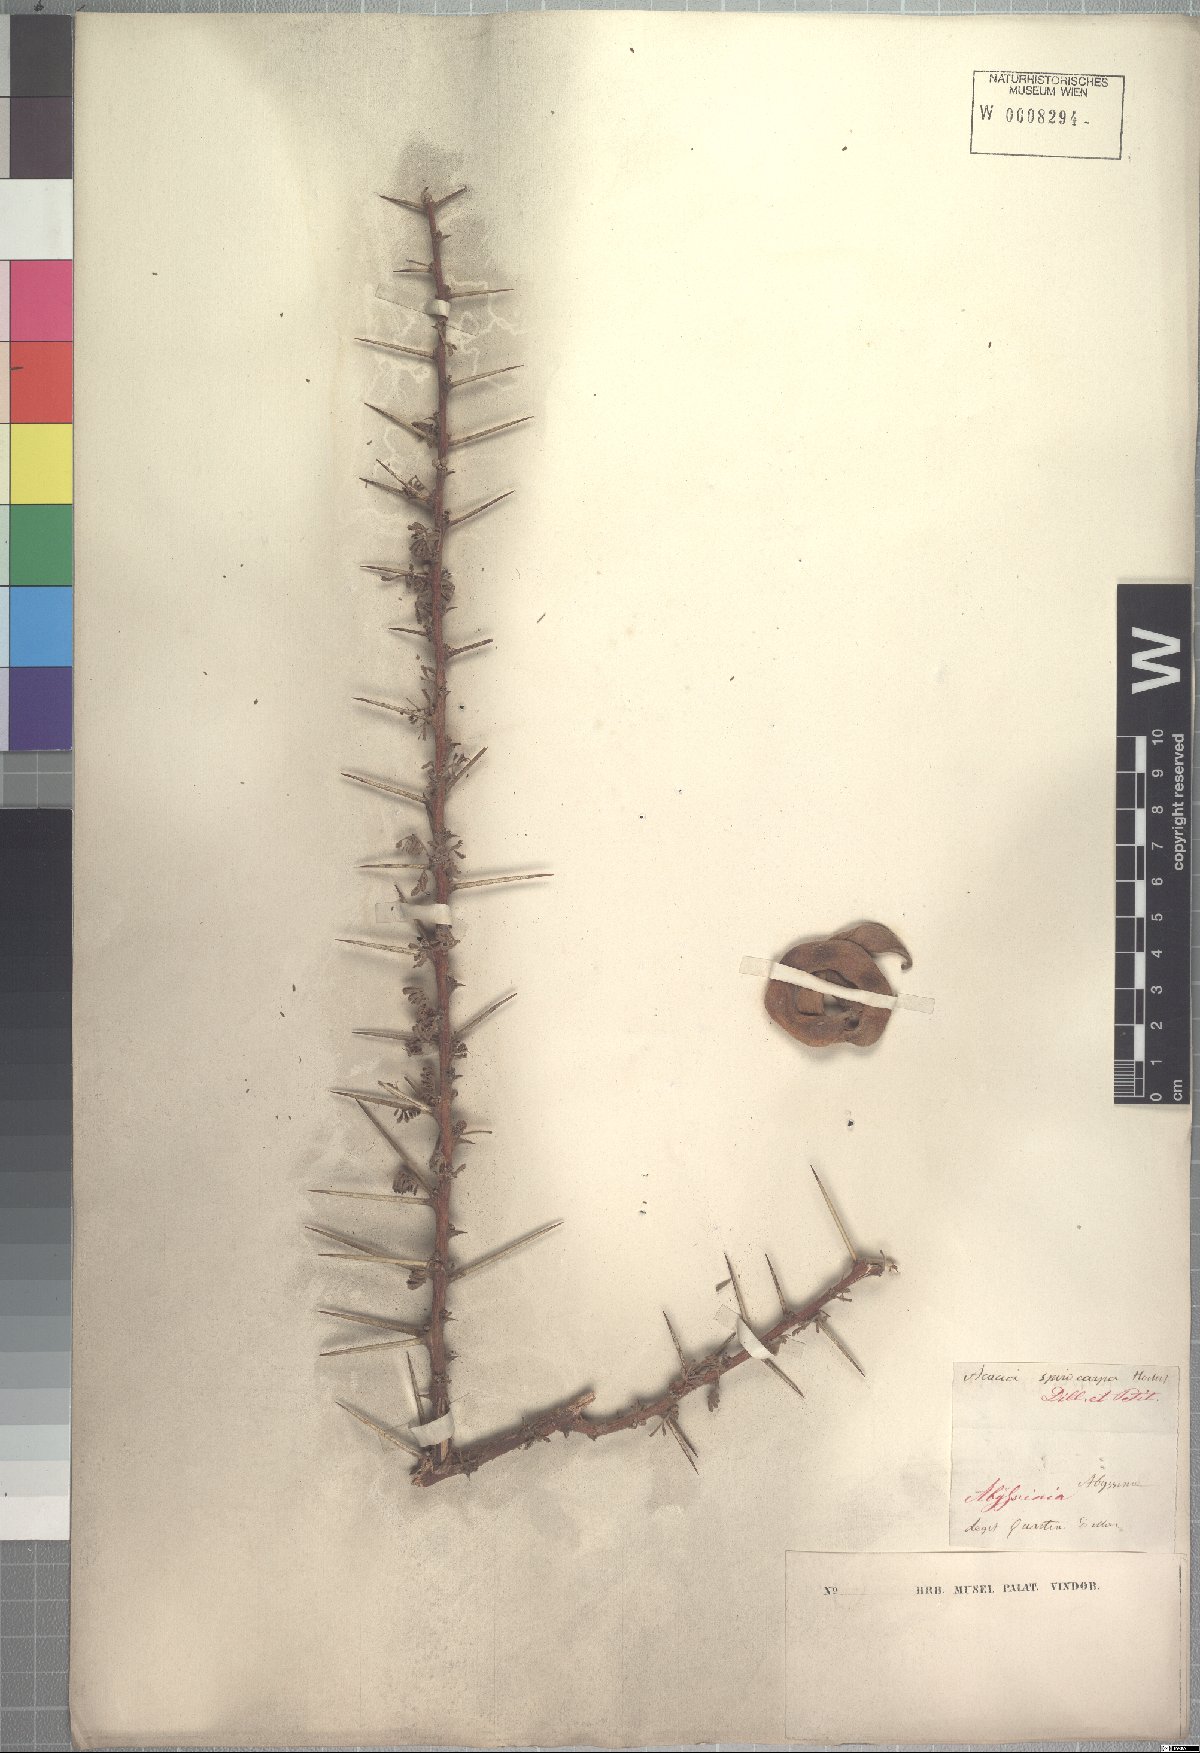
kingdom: Plantae
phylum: Tracheophyta
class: Magnoliopsida
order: Fabales
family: Fabaceae
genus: Vachellia
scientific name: Vachellia tortilis
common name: Umbrella thorn acacia
